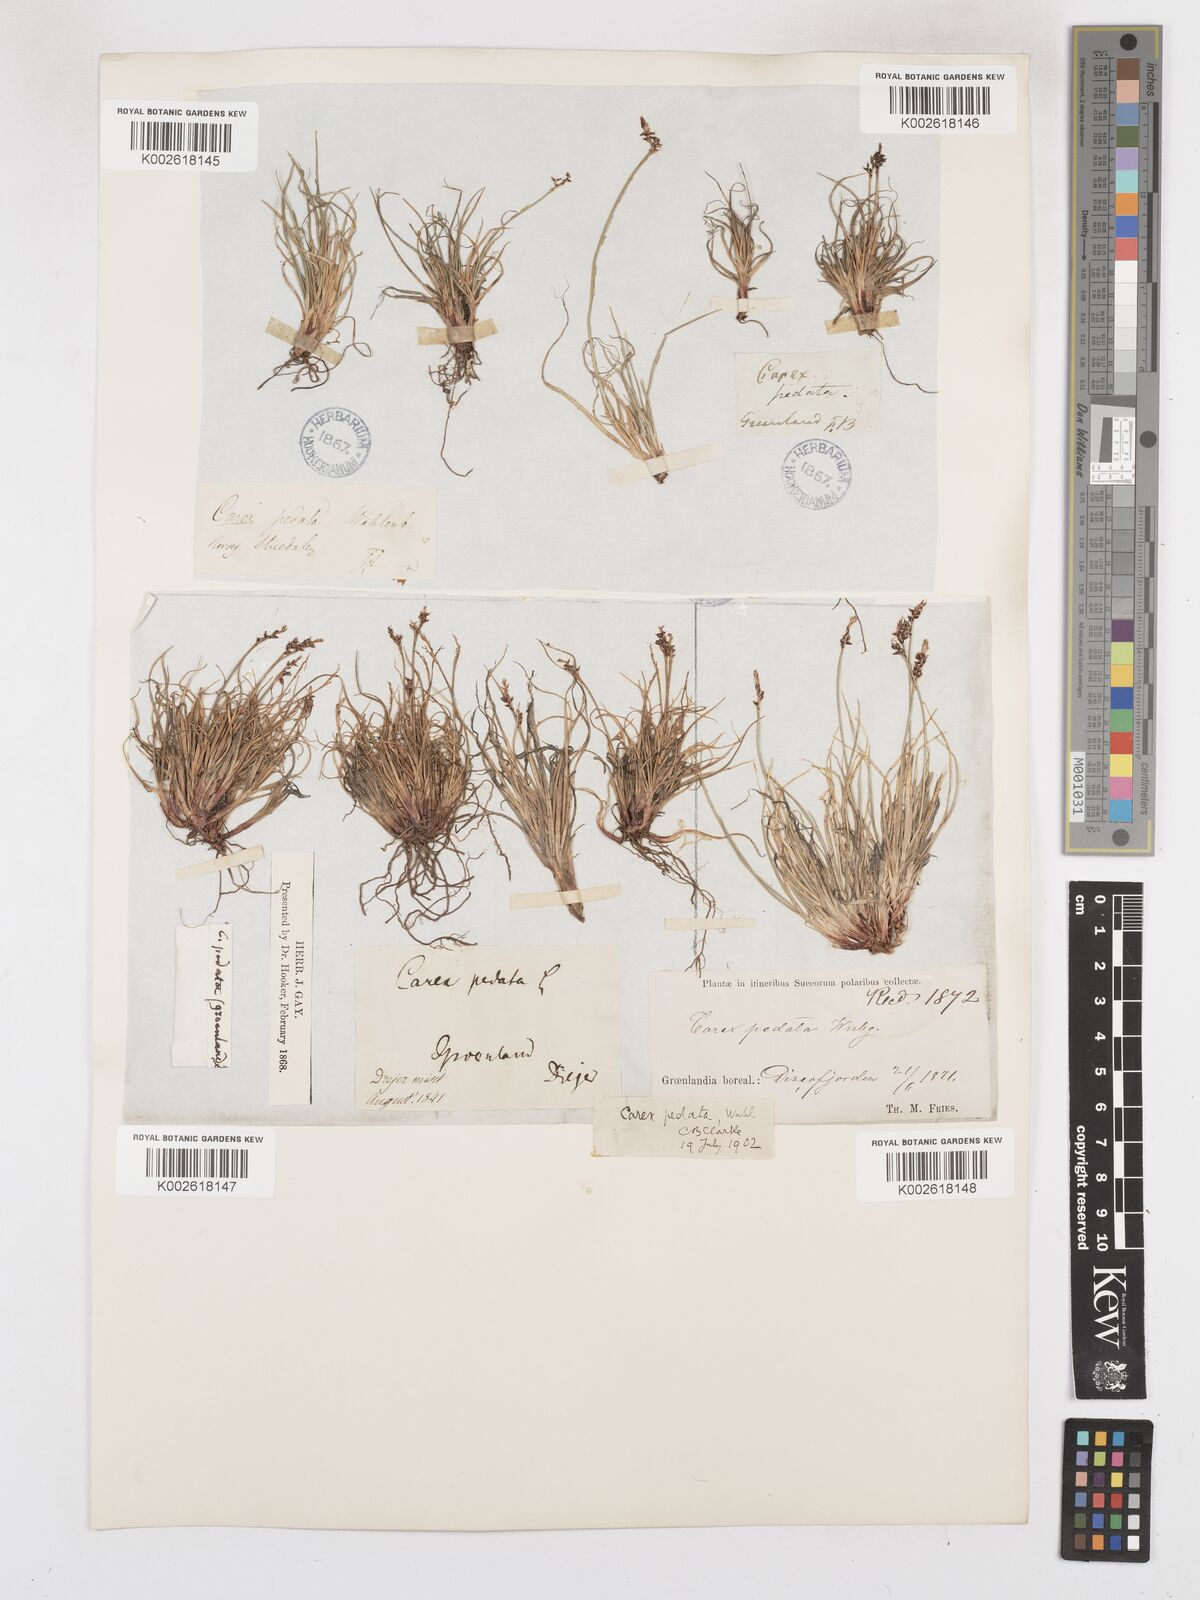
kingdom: Plantae
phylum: Tracheophyta
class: Liliopsida
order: Poales
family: Cyperaceae
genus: Carex
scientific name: Carex glacialis
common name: Newfoundland sedge
